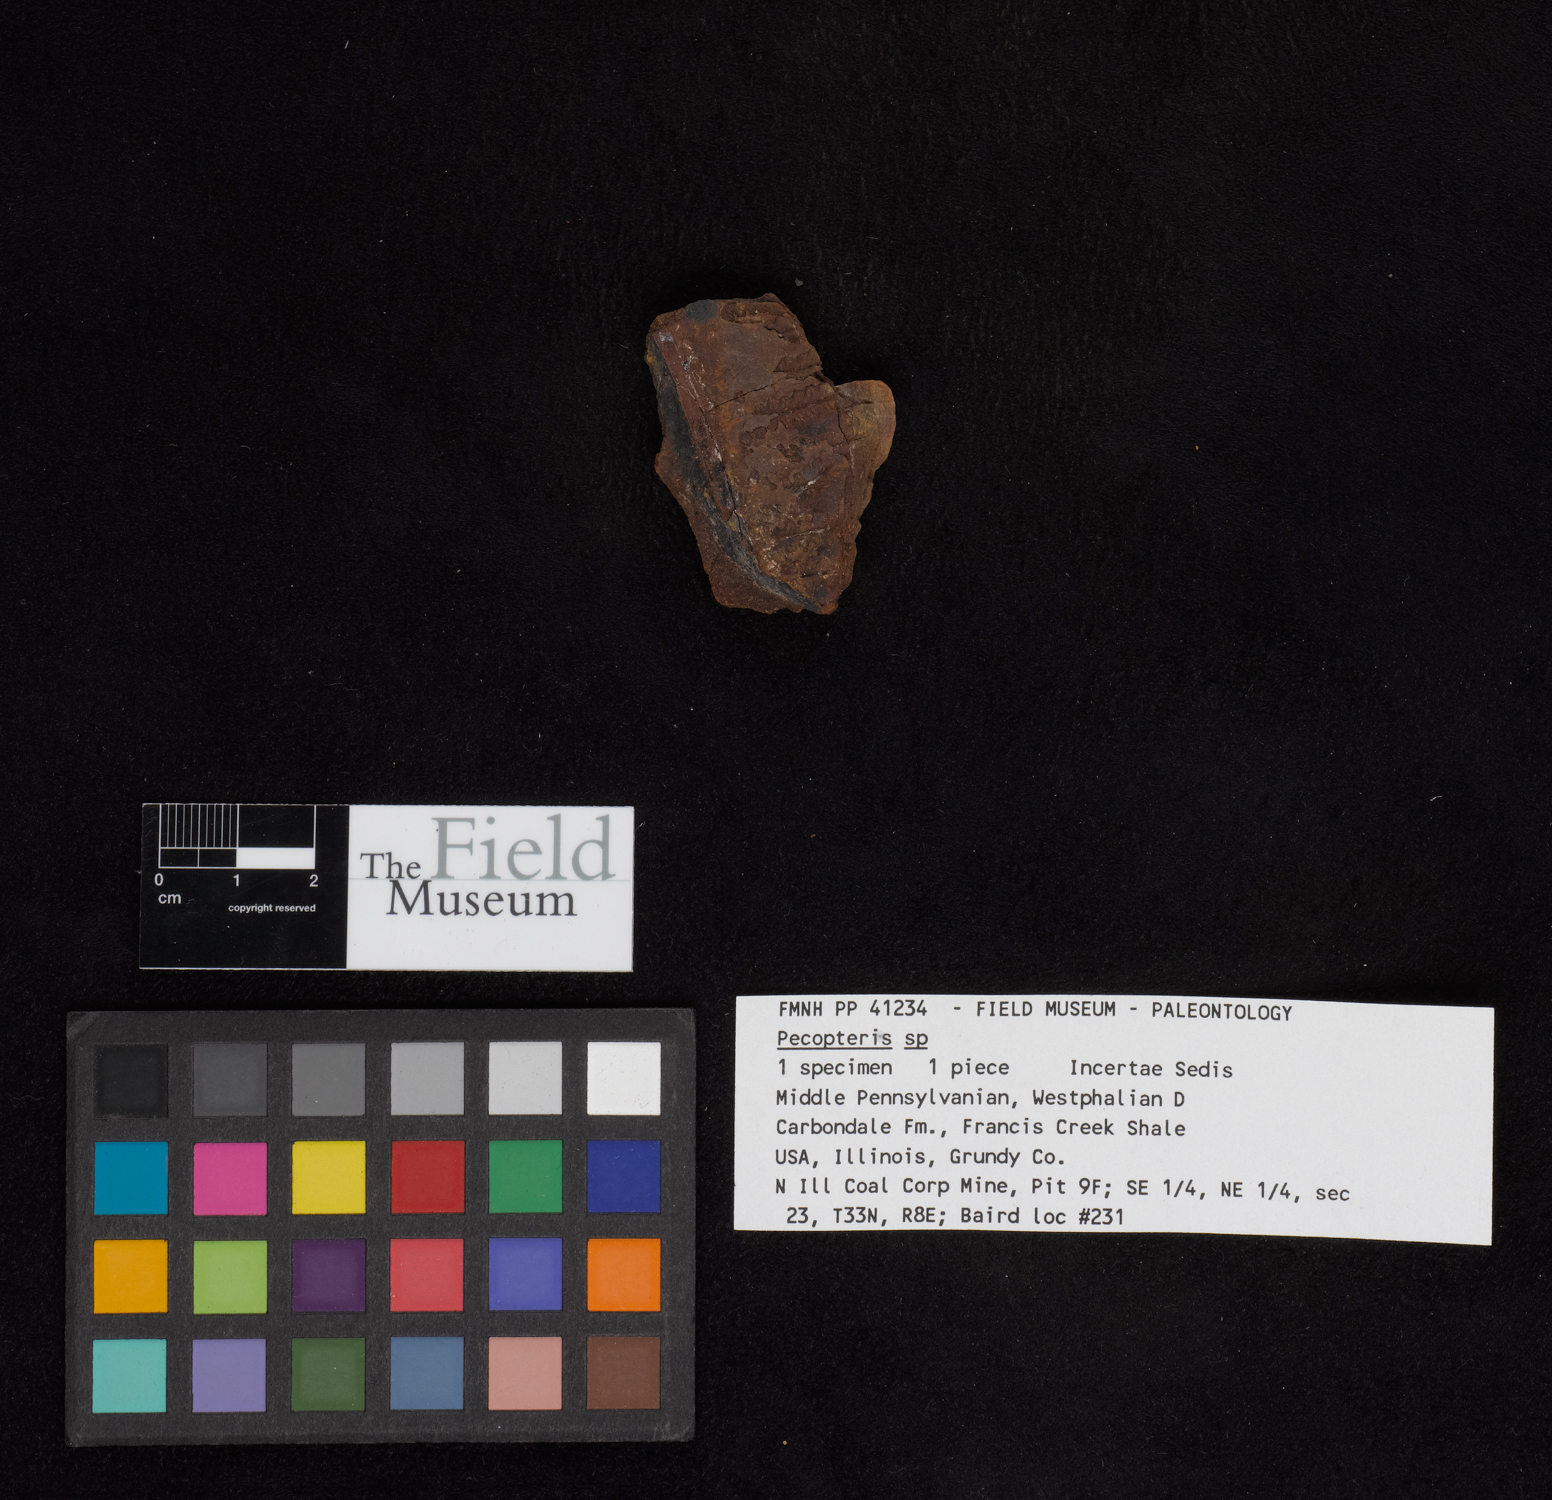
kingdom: Plantae
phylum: Tracheophyta
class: Polypodiopsida
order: Marattiales
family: Asterothecaceae
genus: Pecopteris
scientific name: Pecopteris
